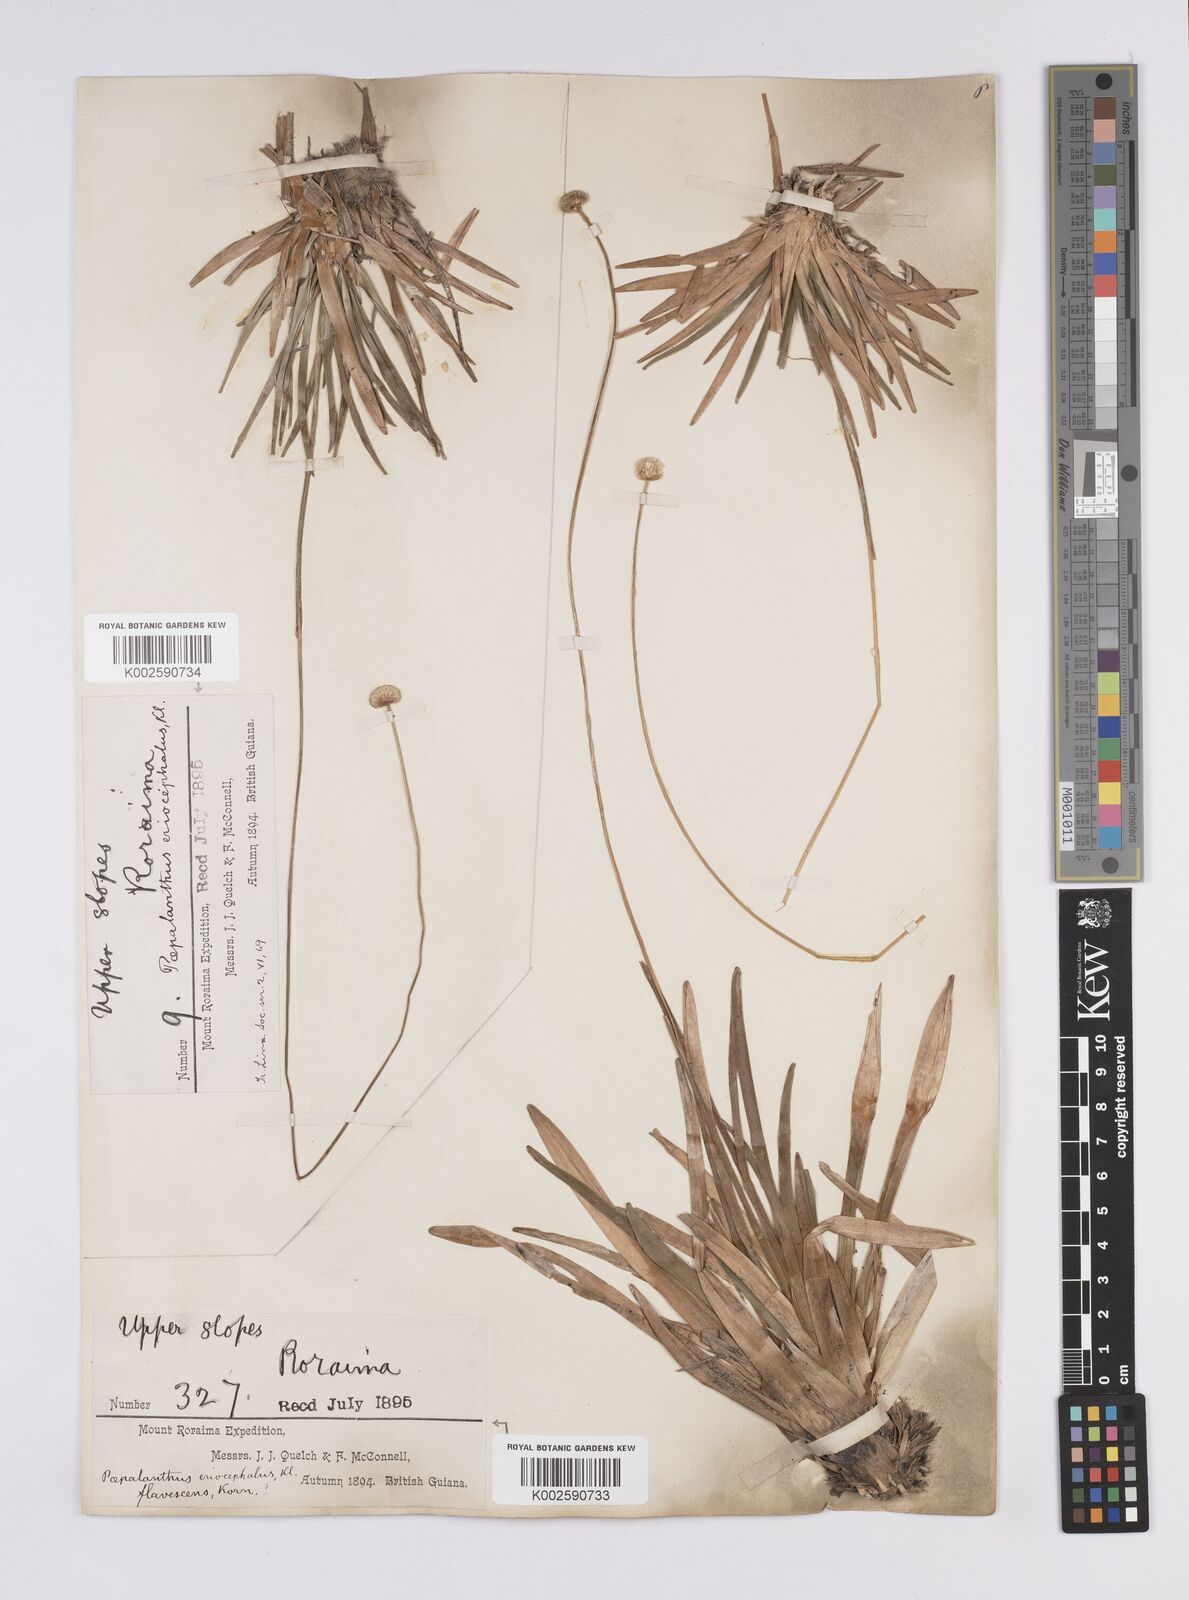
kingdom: Plantae
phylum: Tracheophyta
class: Liliopsida
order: Poales
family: Eriocaulaceae
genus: Leiothrix
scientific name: Leiothrix flavescens
